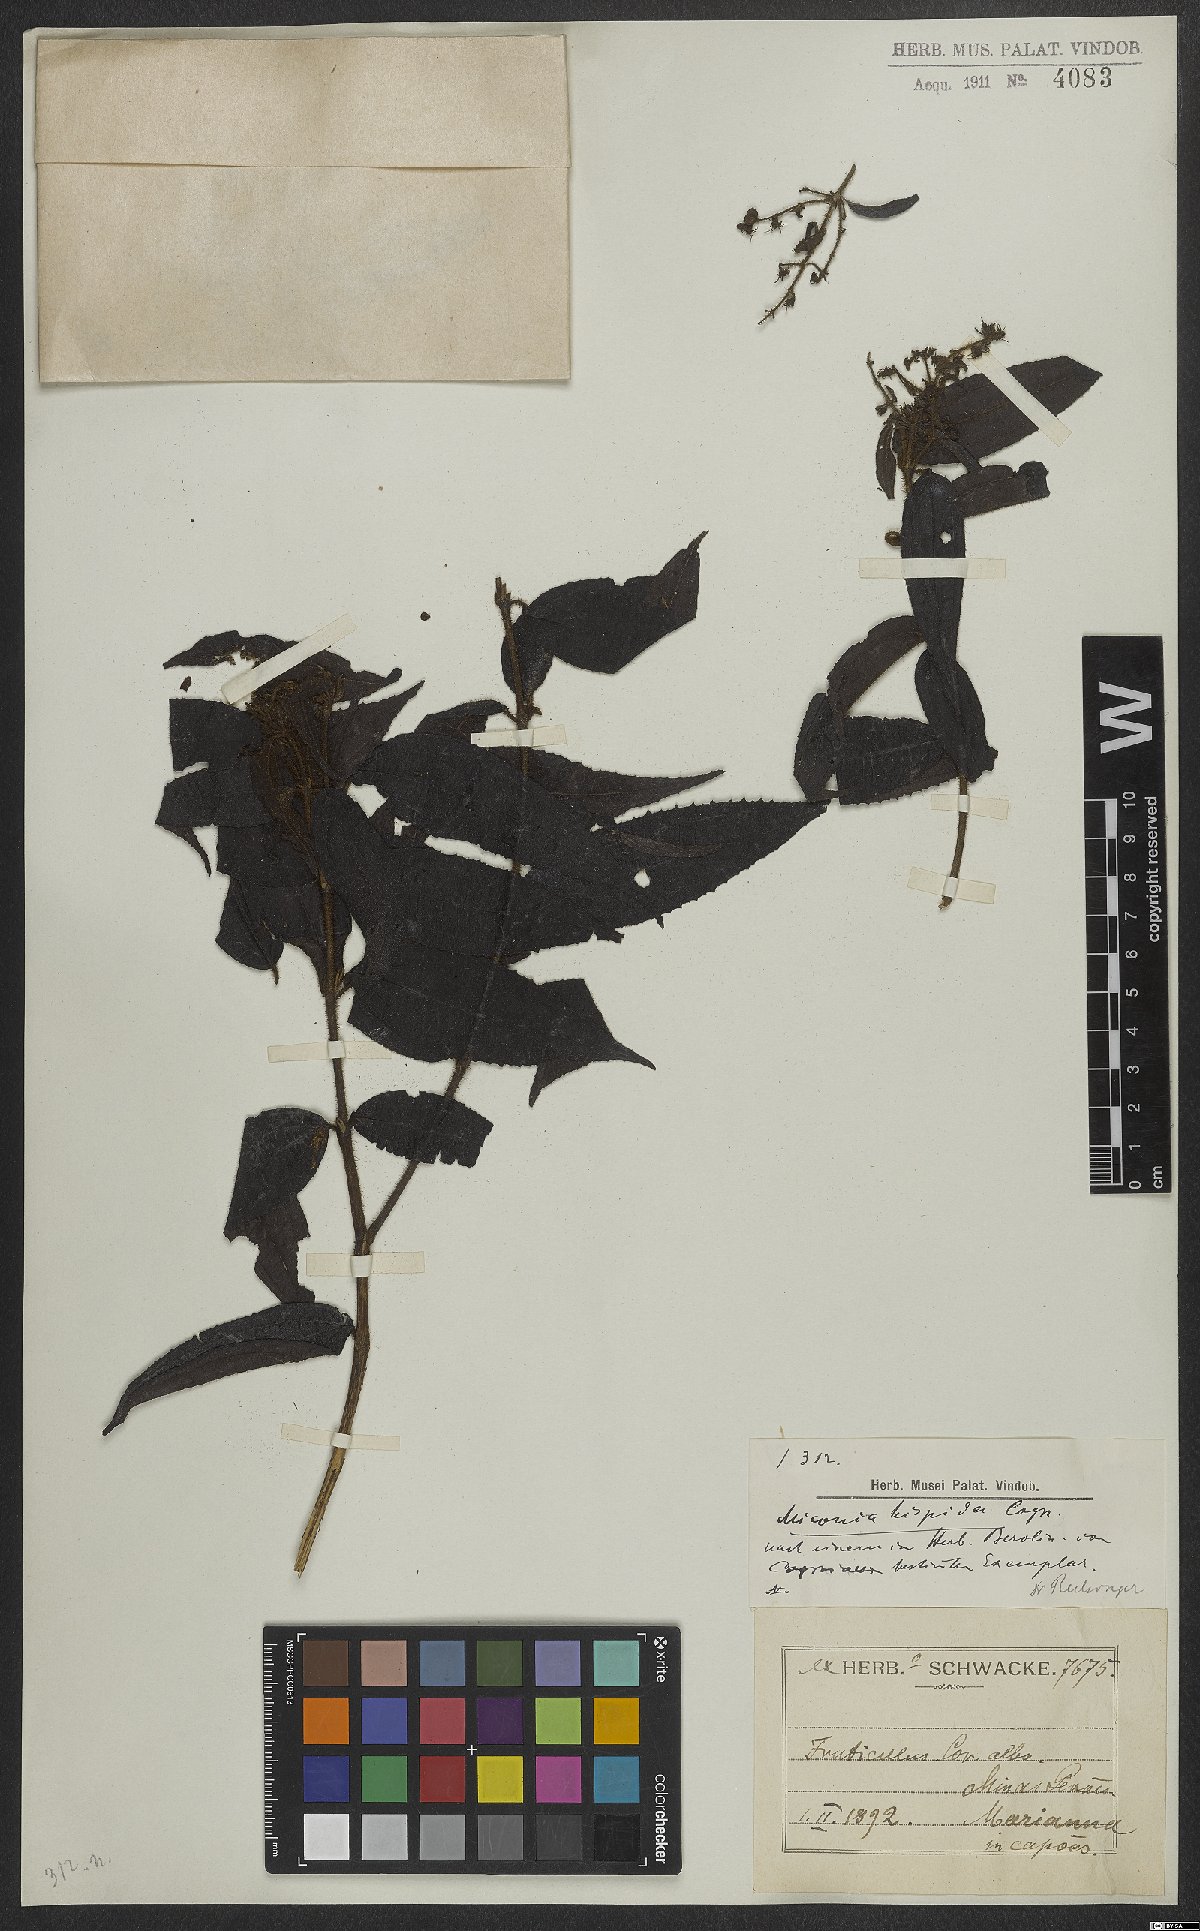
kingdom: Plantae
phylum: Tracheophyta
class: Magnoliopsida
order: Myrtales
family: Melastomataceae
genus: Miconia
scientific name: Miconia trianae
